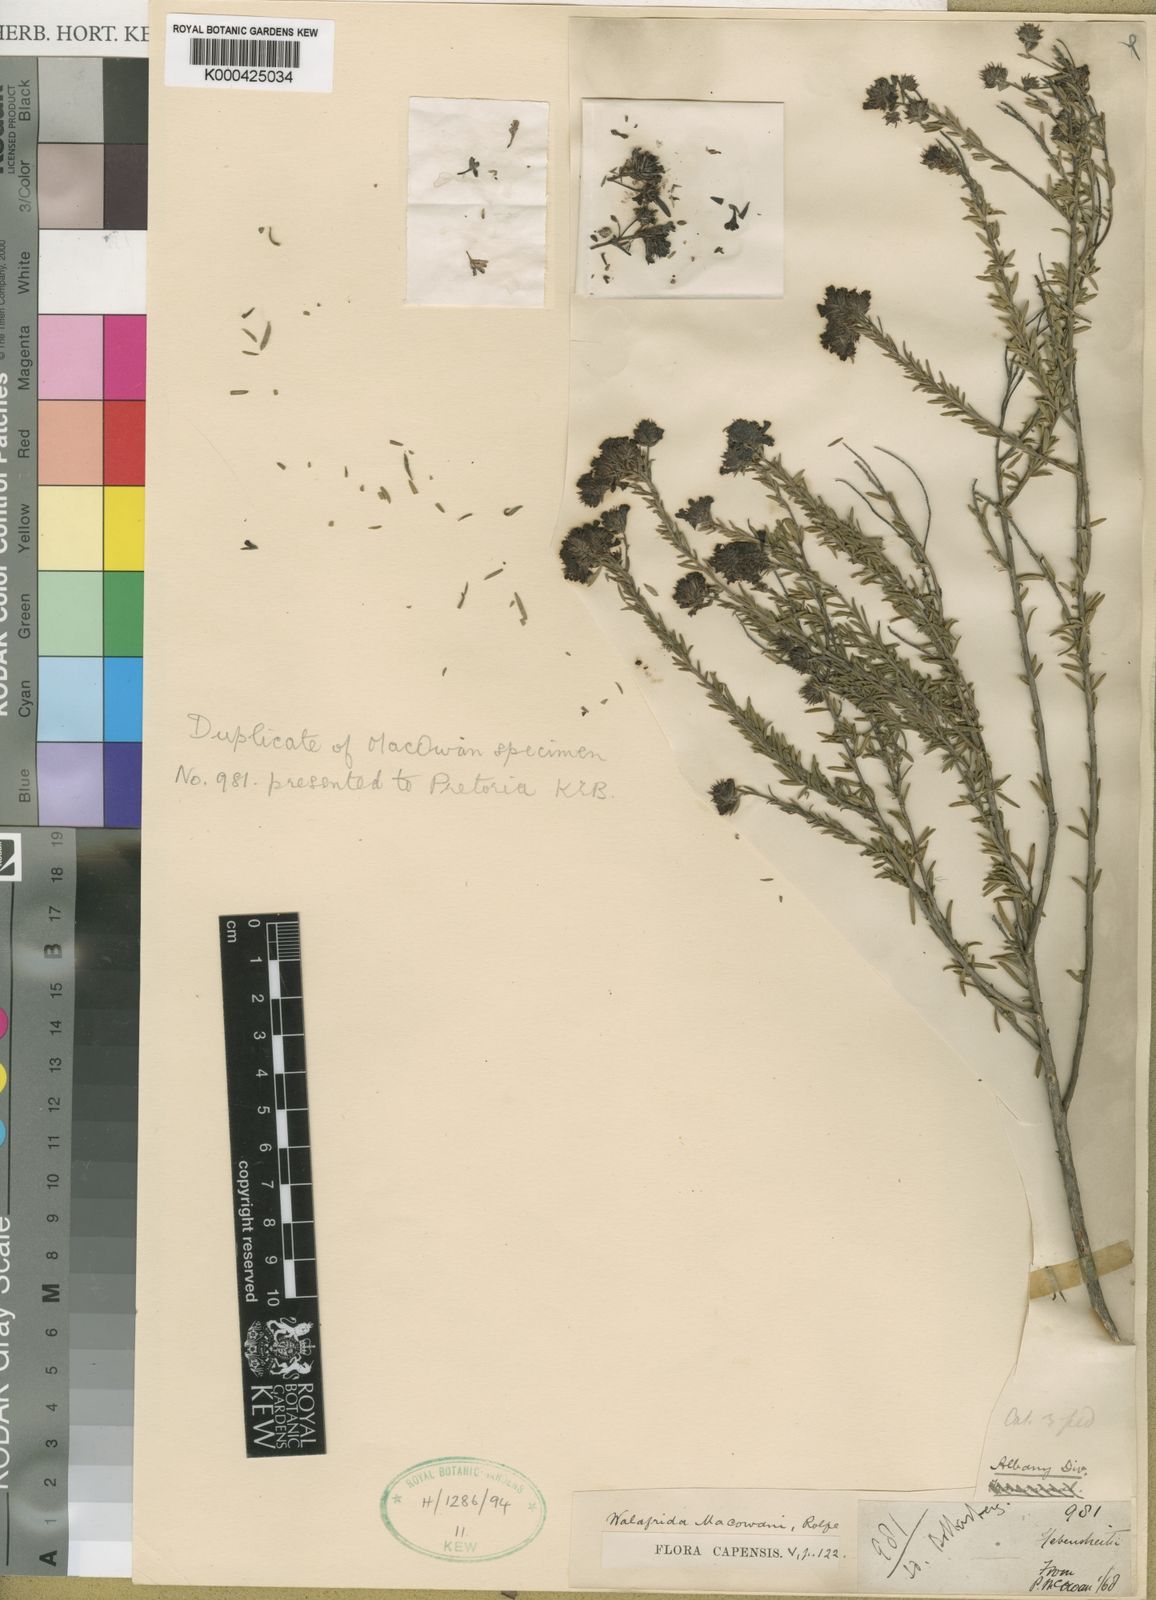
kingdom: Plantae
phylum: Tracheophyta
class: Magnoliopsida
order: Lamiales
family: Scrophulariaceae
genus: Selago
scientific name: Selago decipiens
